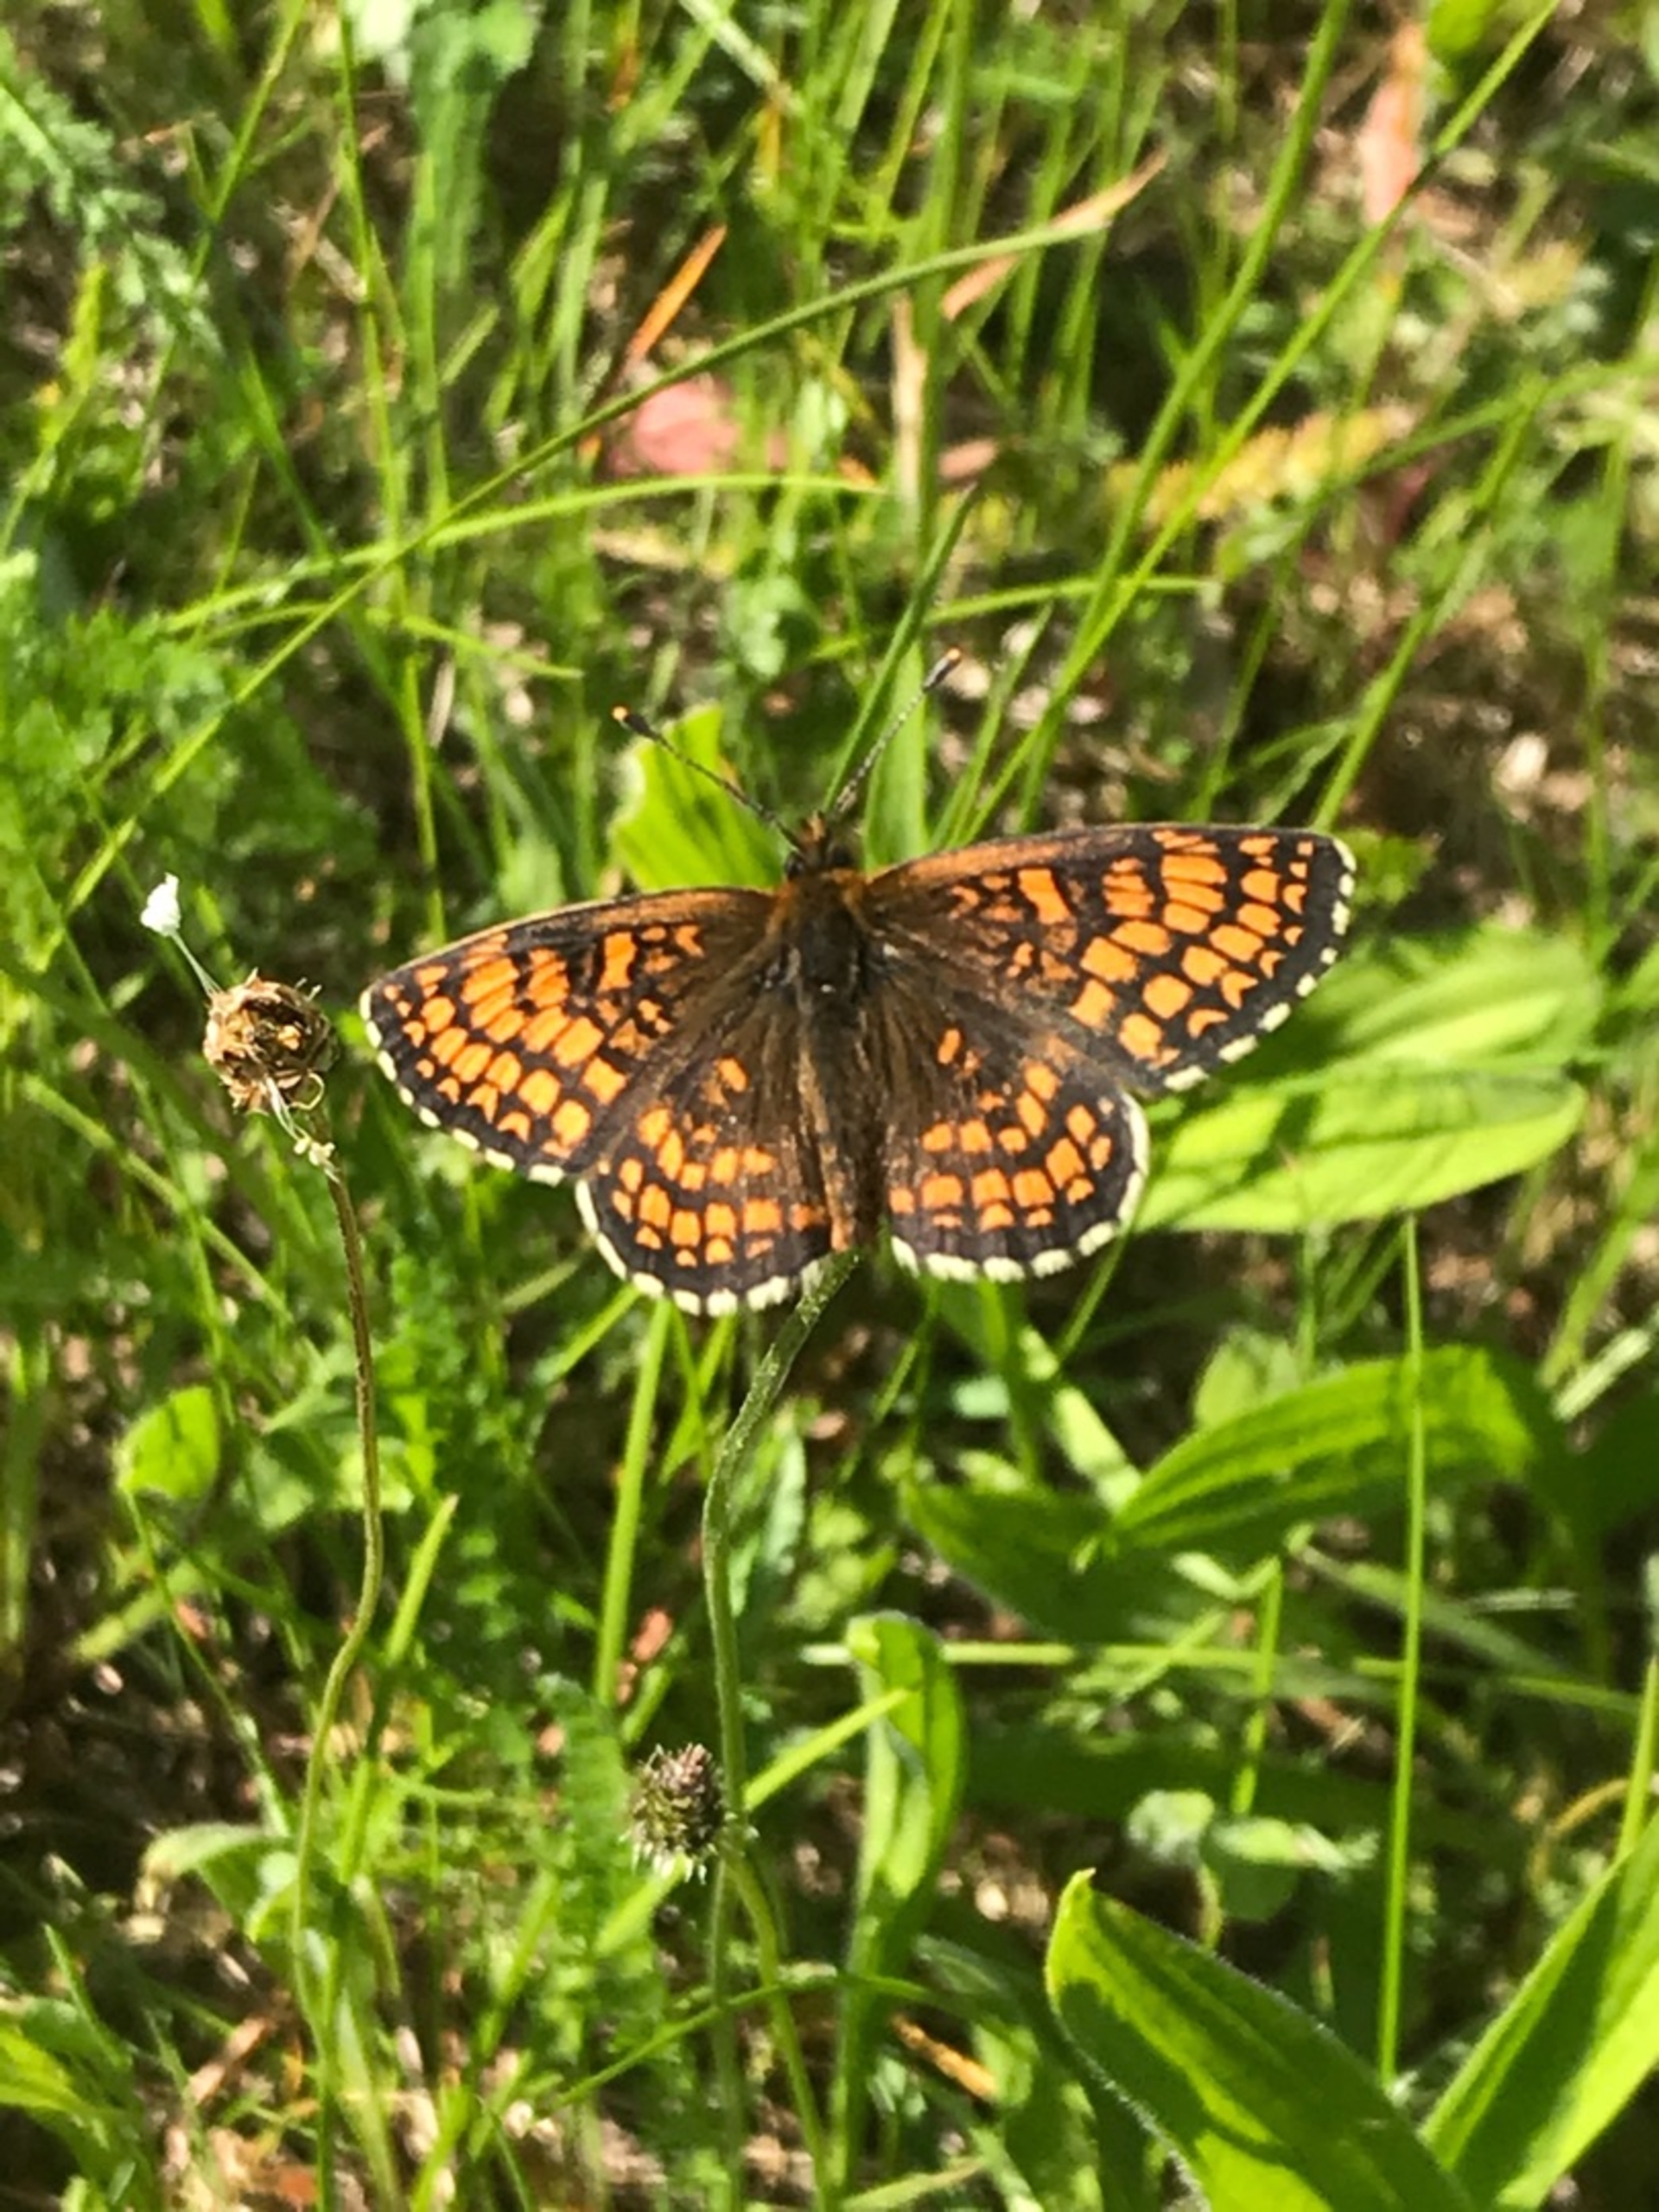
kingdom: Animalia
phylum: Arthropoda
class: Insecta
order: Lepidoptera
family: Nymphalidae
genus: Mellicta
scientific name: Mellicta athalia
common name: Brun pletvinge
